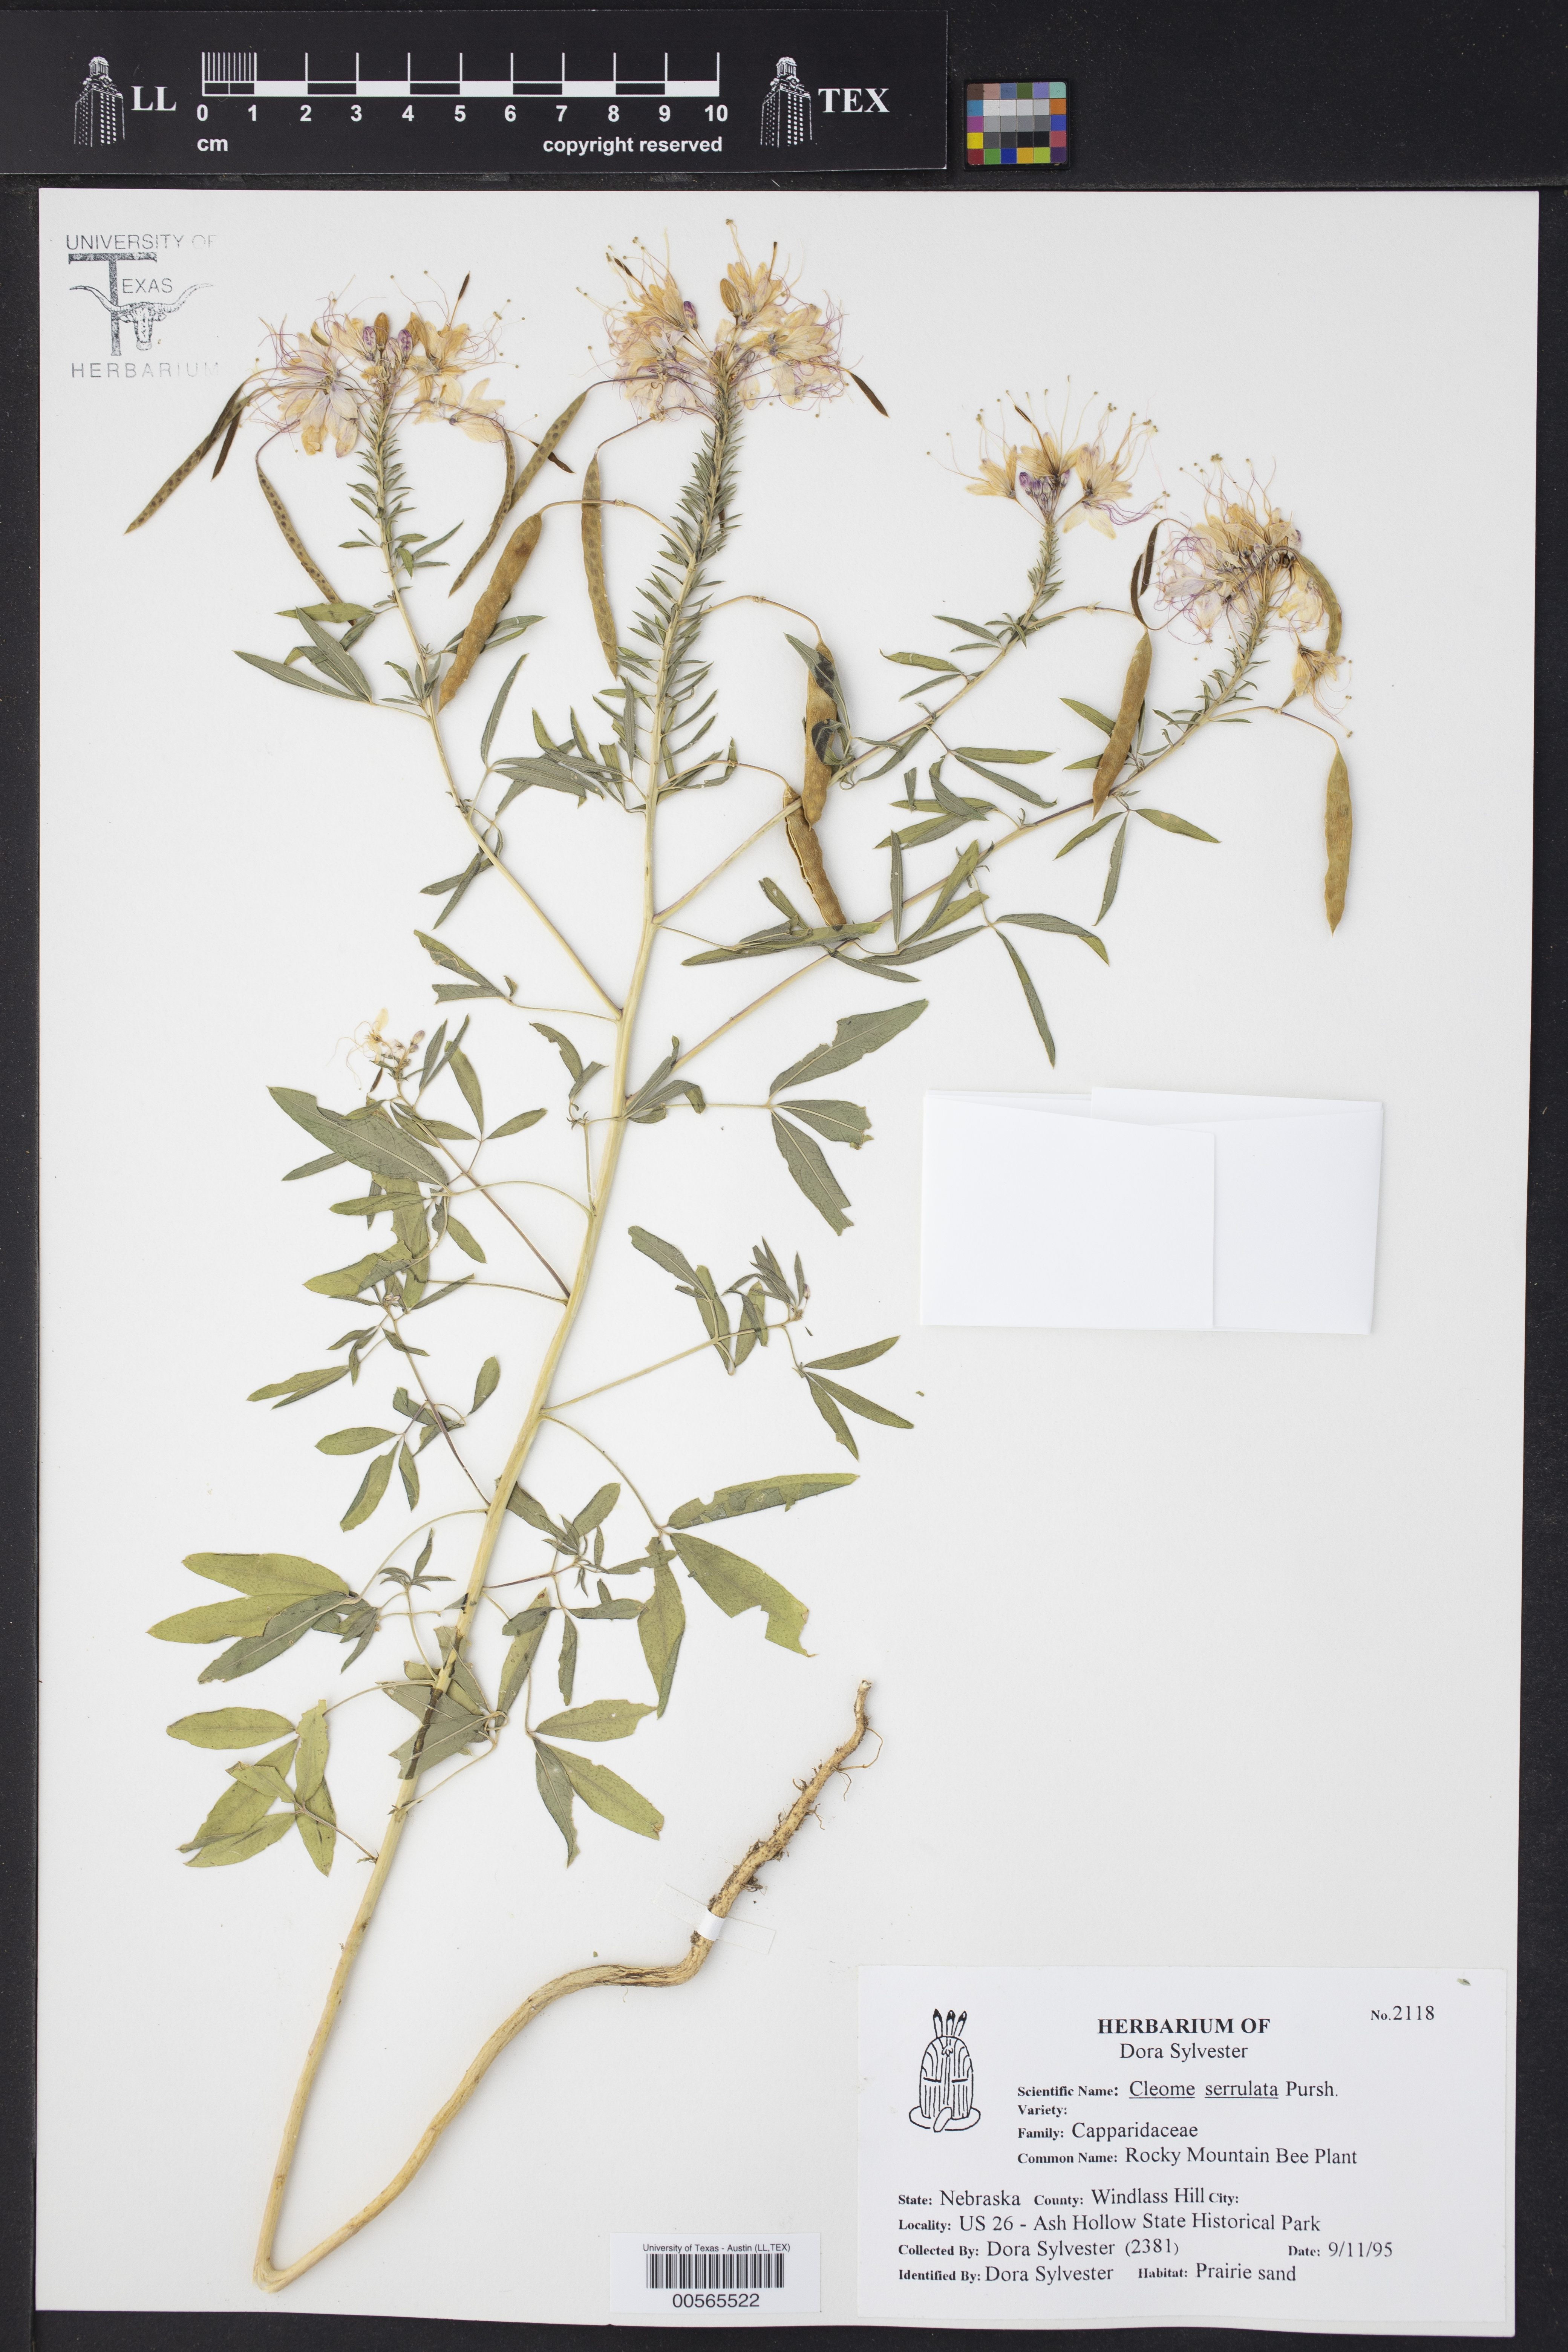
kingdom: Plantae
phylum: Tracheophyta
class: Magnoliopsida
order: Brassicales
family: Cleomaceae
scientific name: Cleomaceae
